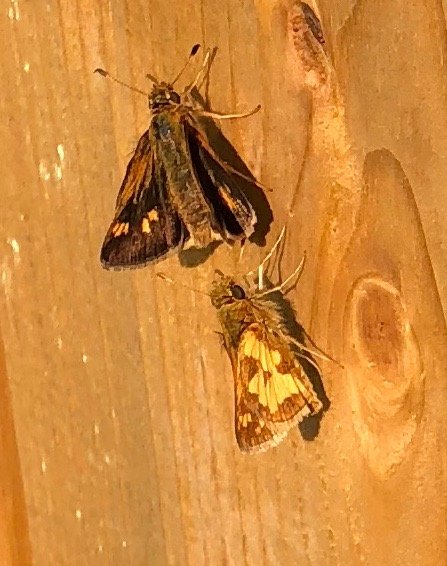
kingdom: Animalia
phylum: Arthropoda
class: Insecta
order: Lepidoptera
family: Hesperiidae
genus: Polites
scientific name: Polites coras
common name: Peck's Skipper
